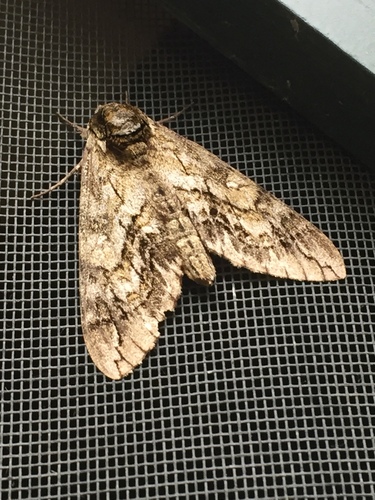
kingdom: Animalia
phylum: Arthropoda
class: Insecta
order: Lepidoptera
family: Sphingidae
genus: Ceratomia
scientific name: Ceratomia undulosa
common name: Waved sphinx
